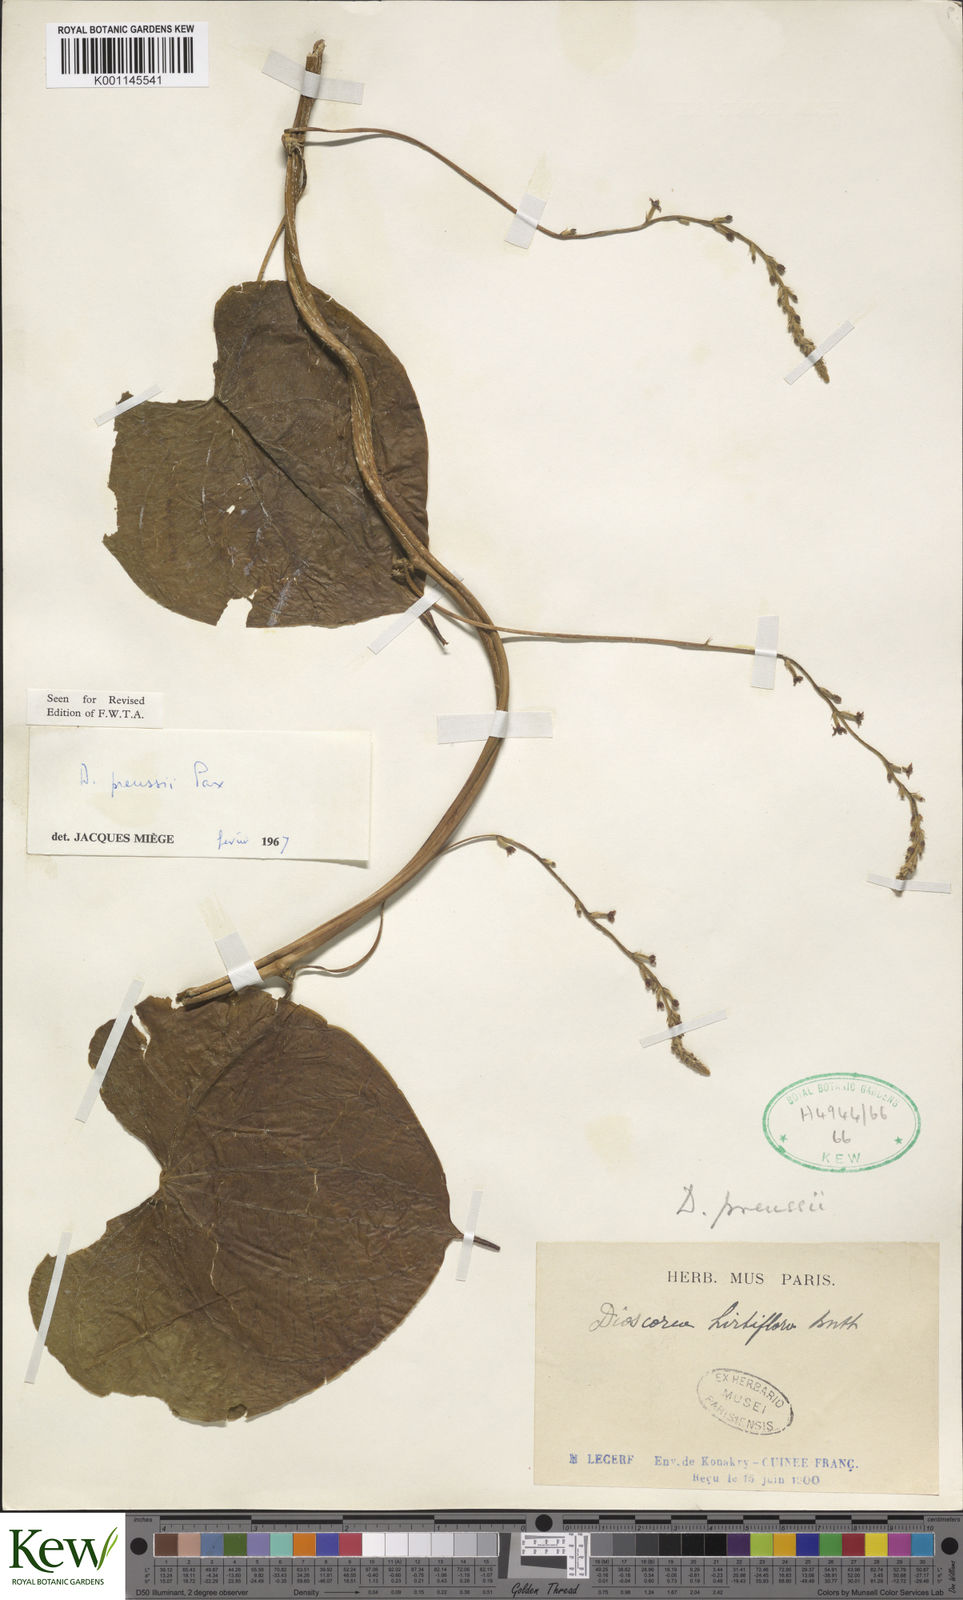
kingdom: Plantae
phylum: Tracheophyta
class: Liliopsida
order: Dioscoreales
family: Dioscoreaceae
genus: Dioscorea
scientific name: Dioscorea preussii
